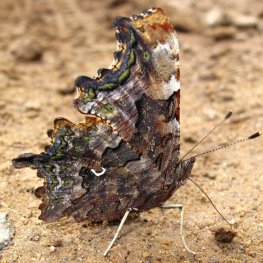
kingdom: Animalia
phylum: Arthropoda
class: Insecta
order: Lepidoptera
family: Nymphalidae
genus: Polygonia
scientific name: Polygonia faunus
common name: Green Comma
